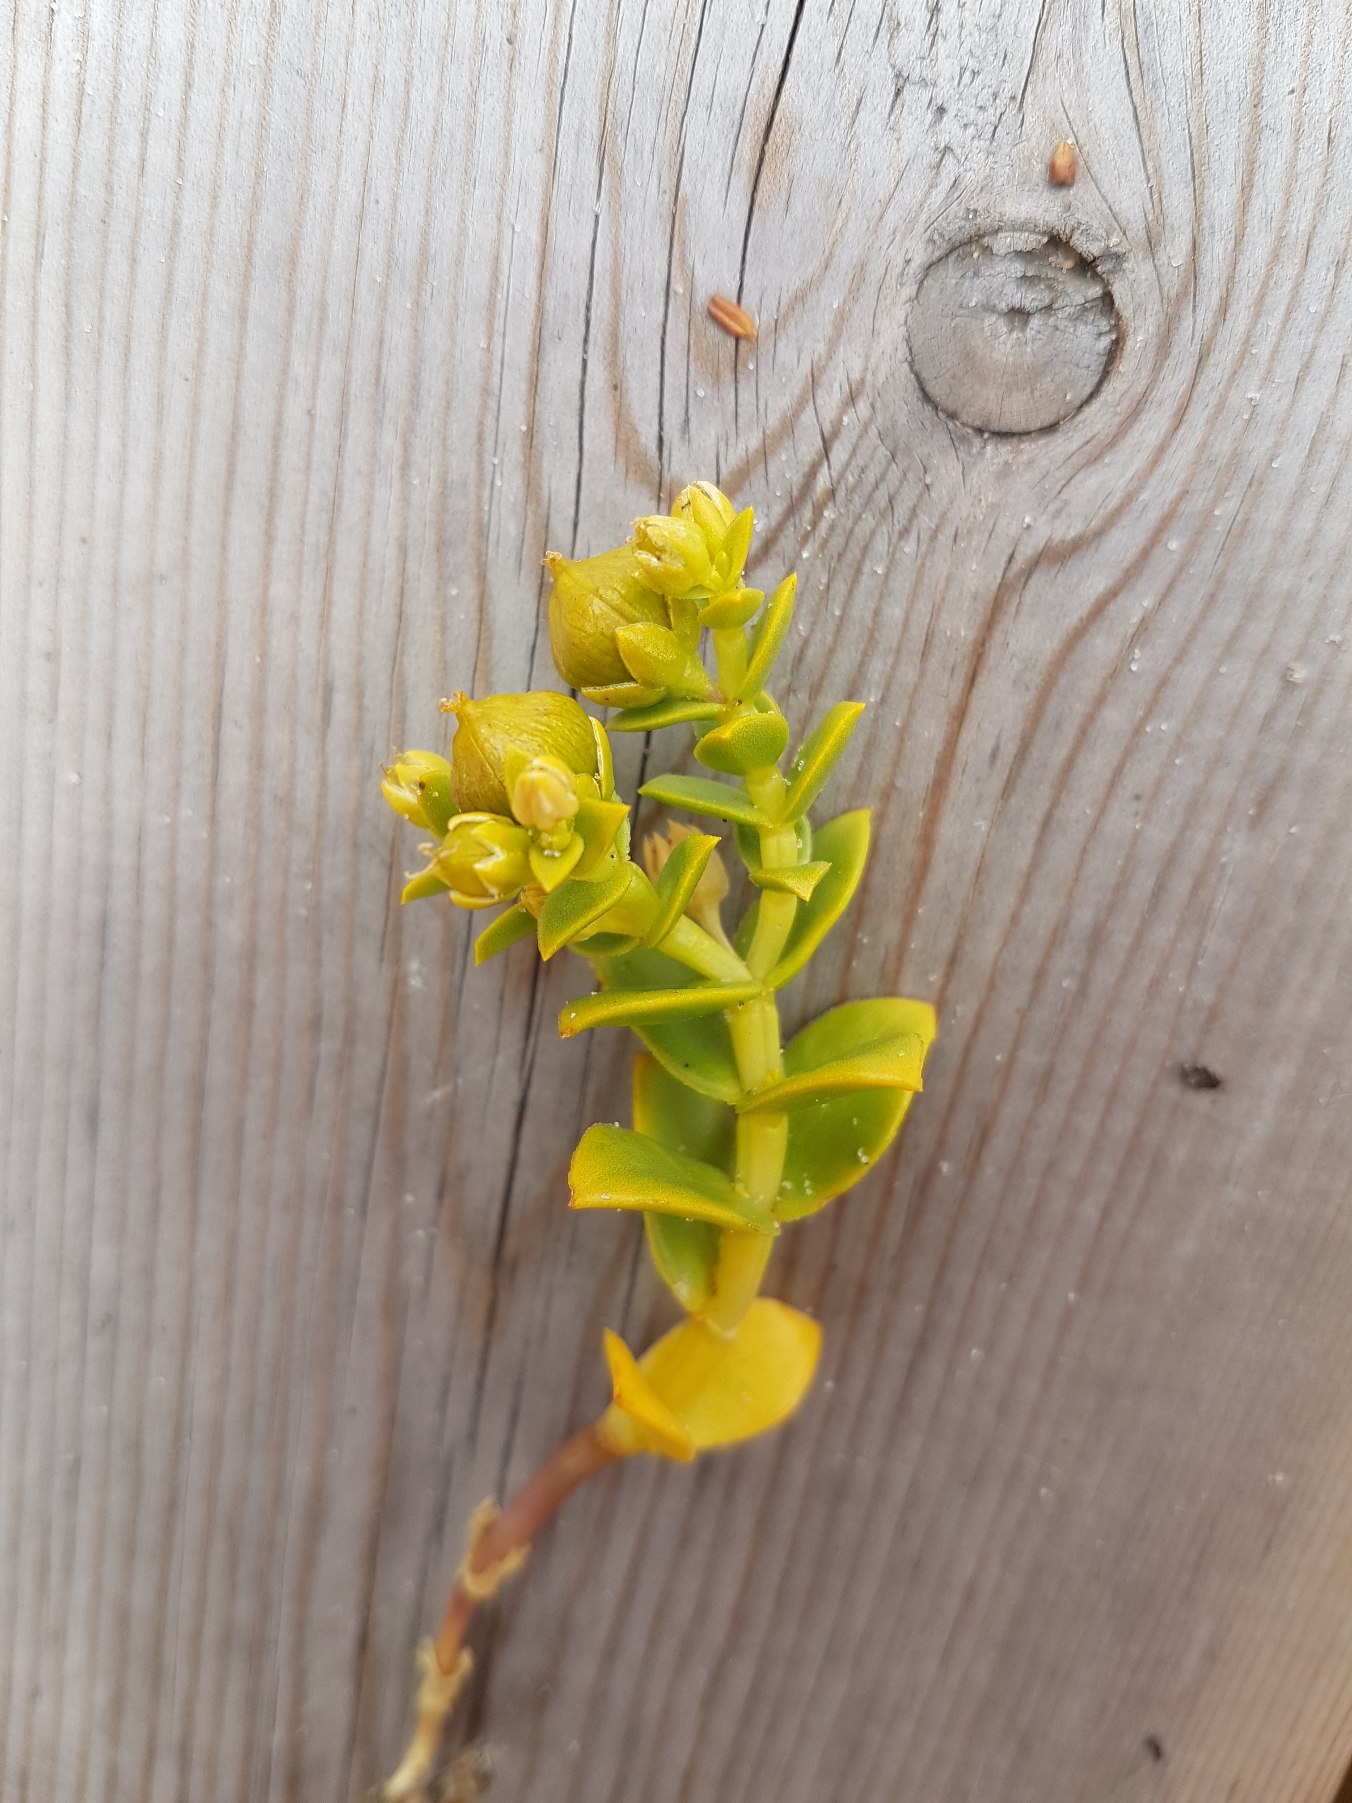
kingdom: Plantae
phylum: Tracheophyta
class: Magnoliopsida
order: Caryophyllales
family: Caryophyllaceae
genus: Honckenya
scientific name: Honckenya peploides
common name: Strandarve
